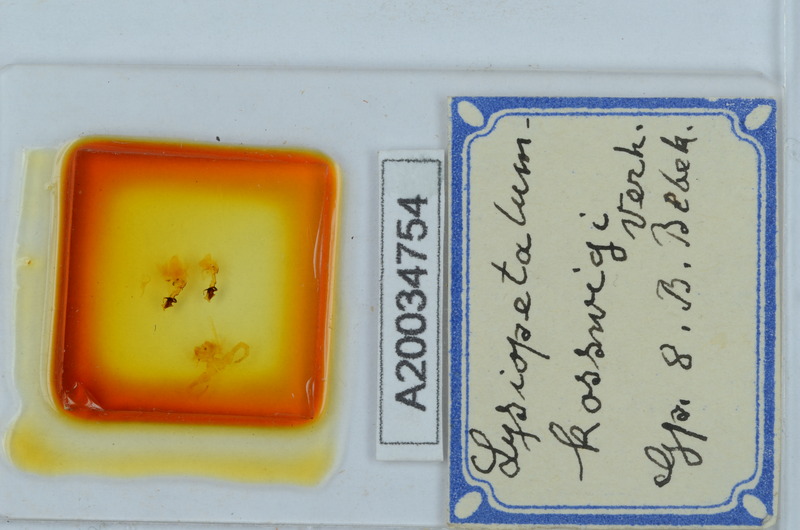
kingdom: Animalia
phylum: Arthropoda
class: Diplopoda
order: Callipodida
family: Schizopetalidae
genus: Acanthopetalum
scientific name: Acanthopetalum furculigerum
